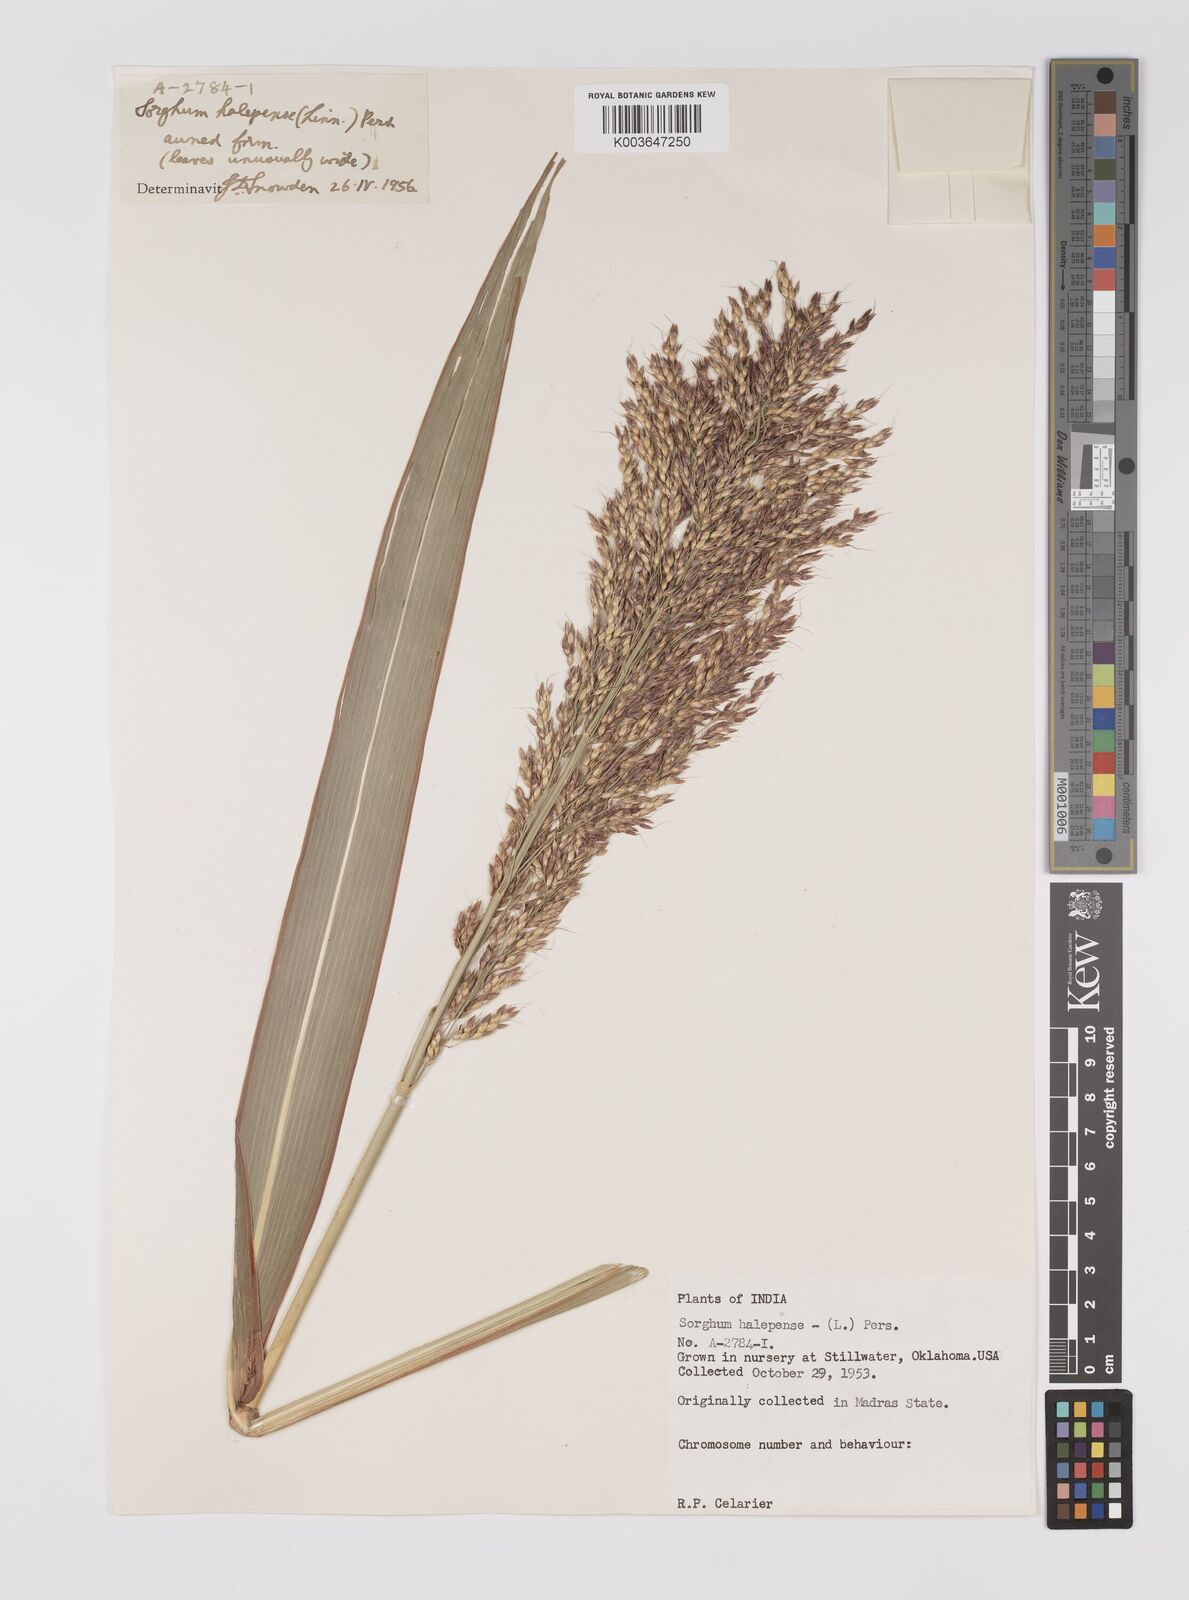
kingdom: Plantae
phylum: Tracheophyta
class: Liliopsida
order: Poales
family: Poaceae
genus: Sorghum
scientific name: Sorghum halepense
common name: Johnson-grass
